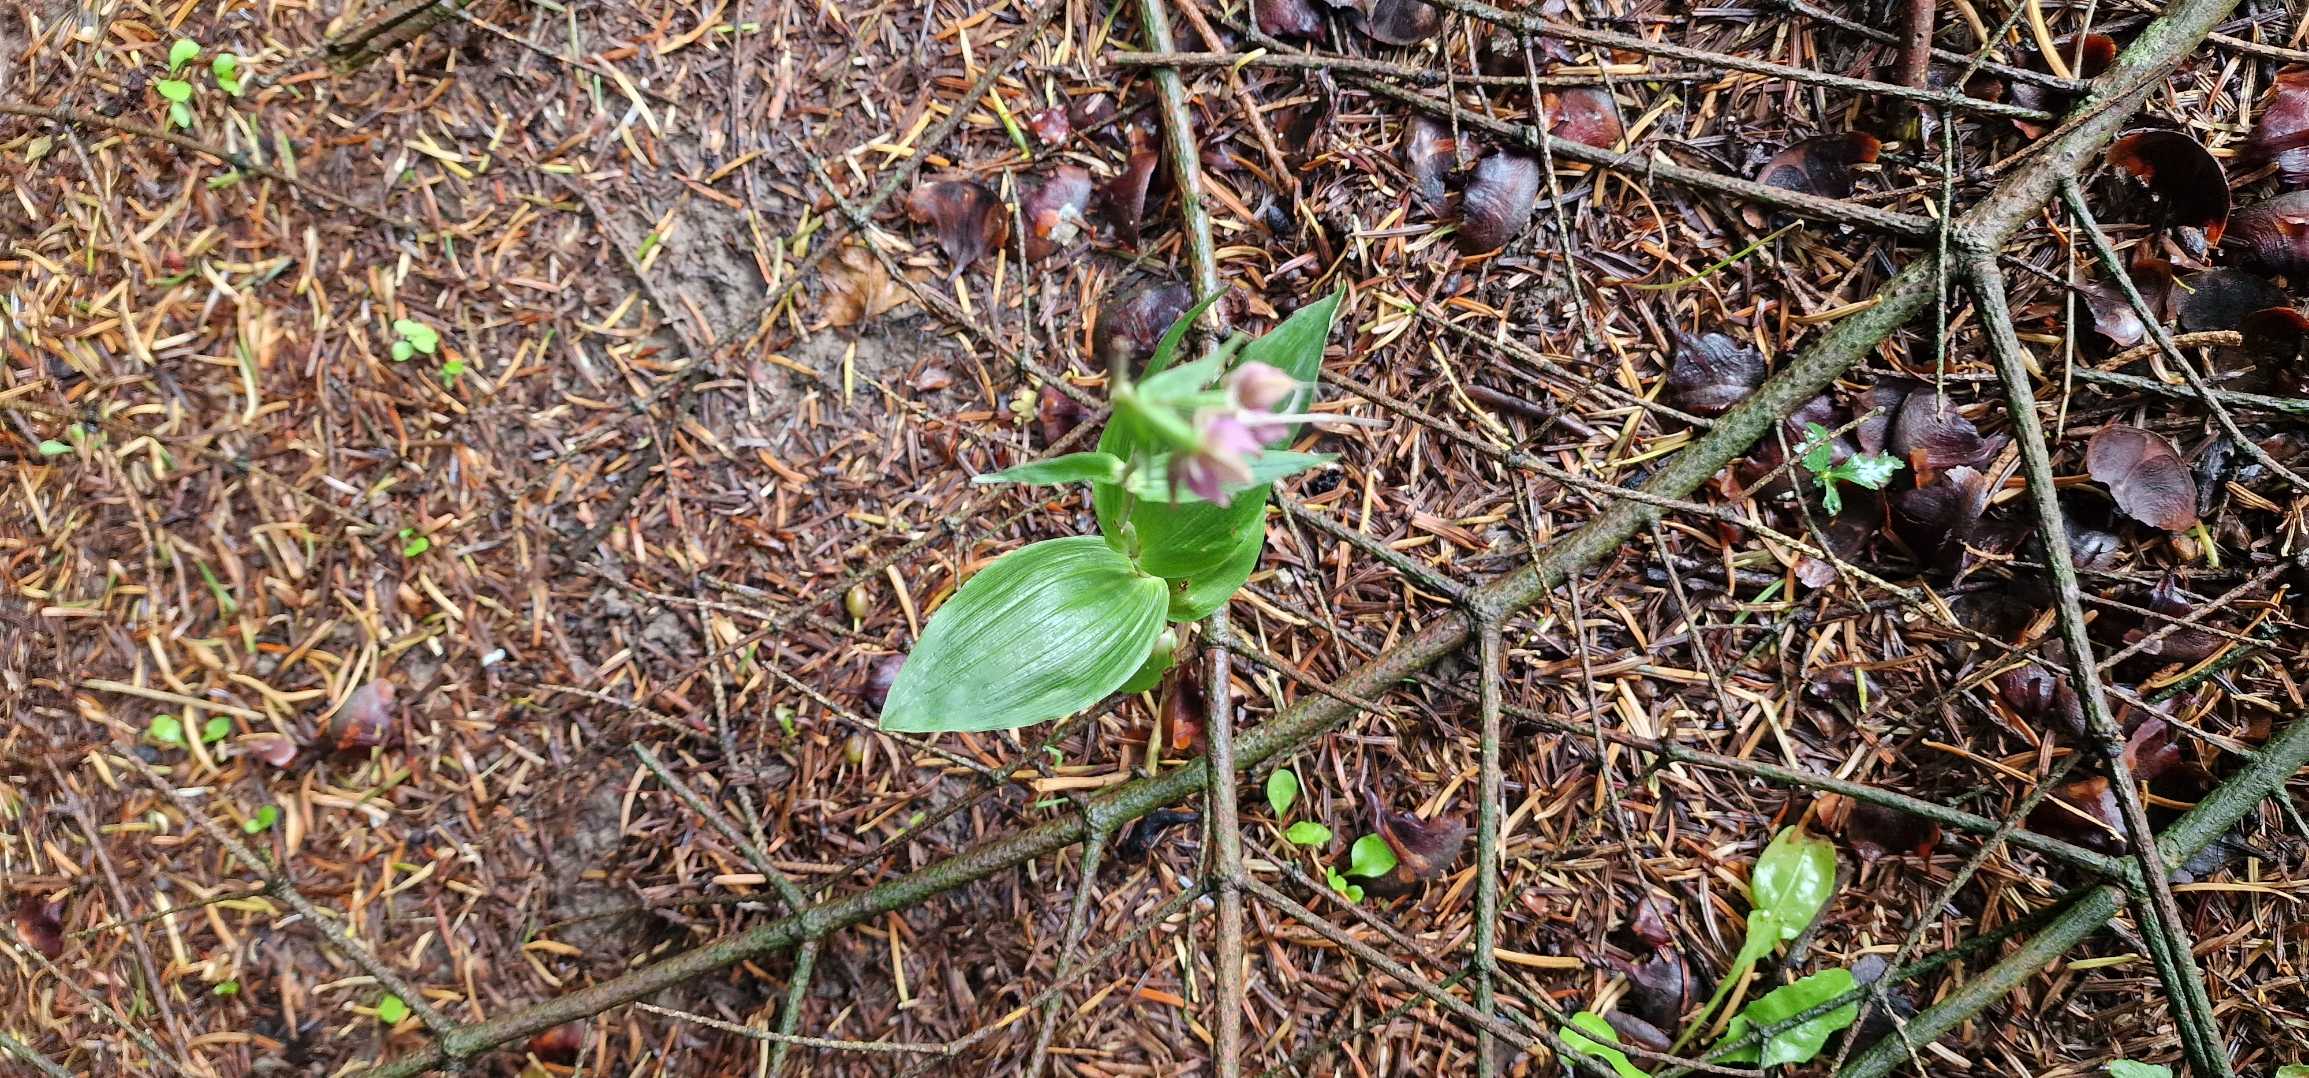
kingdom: Plantae
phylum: Tracheophyta
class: Liliopsida
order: Asparagales
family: Orchidaceae
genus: Epipactis
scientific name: Epipactis helleborine
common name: Skov-hullæbe
